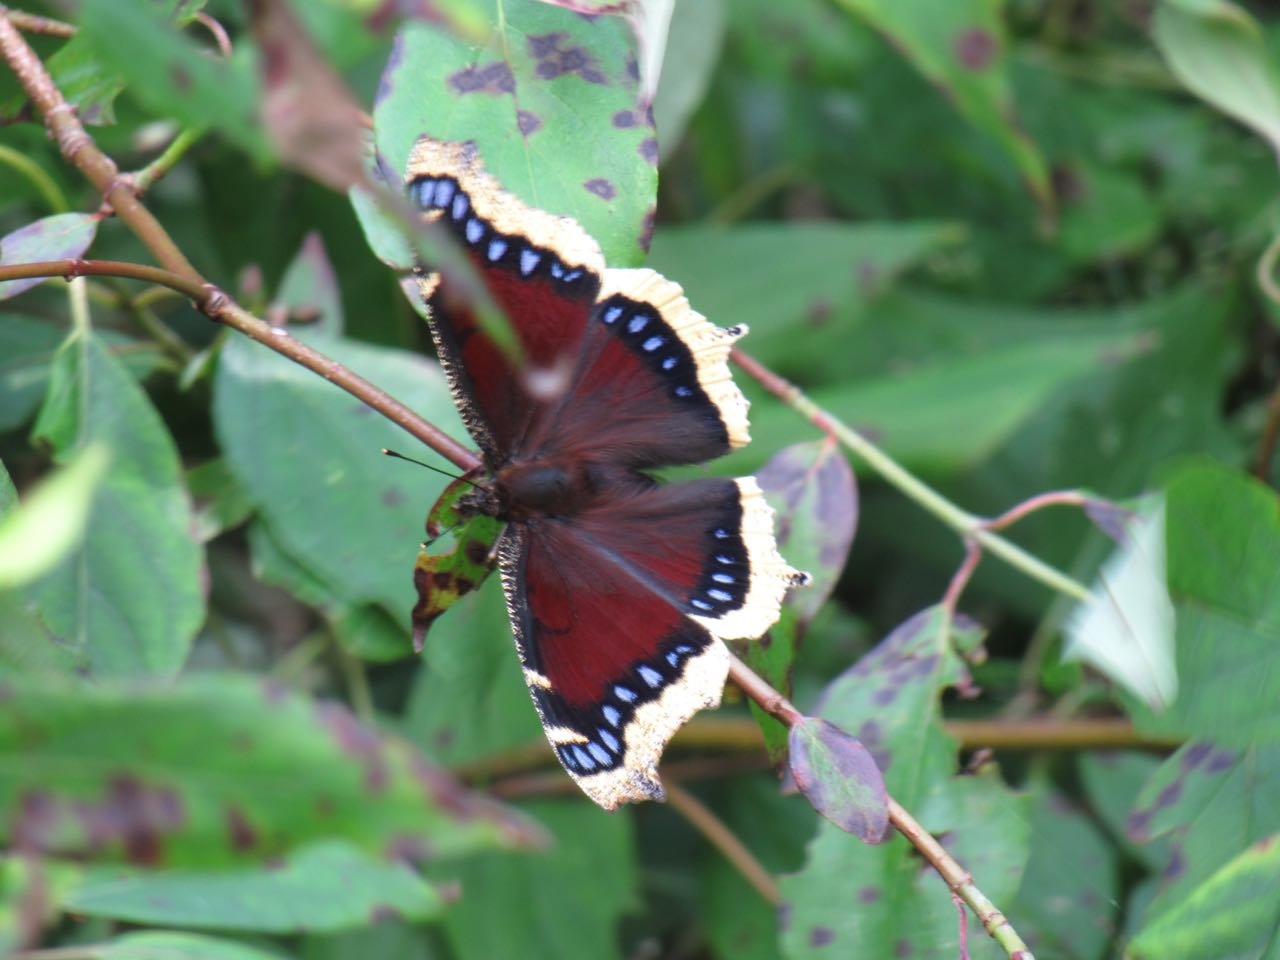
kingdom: Animalia
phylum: Arthropoda
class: Insecta
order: Lepidoptera
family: Nymphalidae
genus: Nymphalis
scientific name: Nymphalis antiopa
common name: Mourning Cloak
